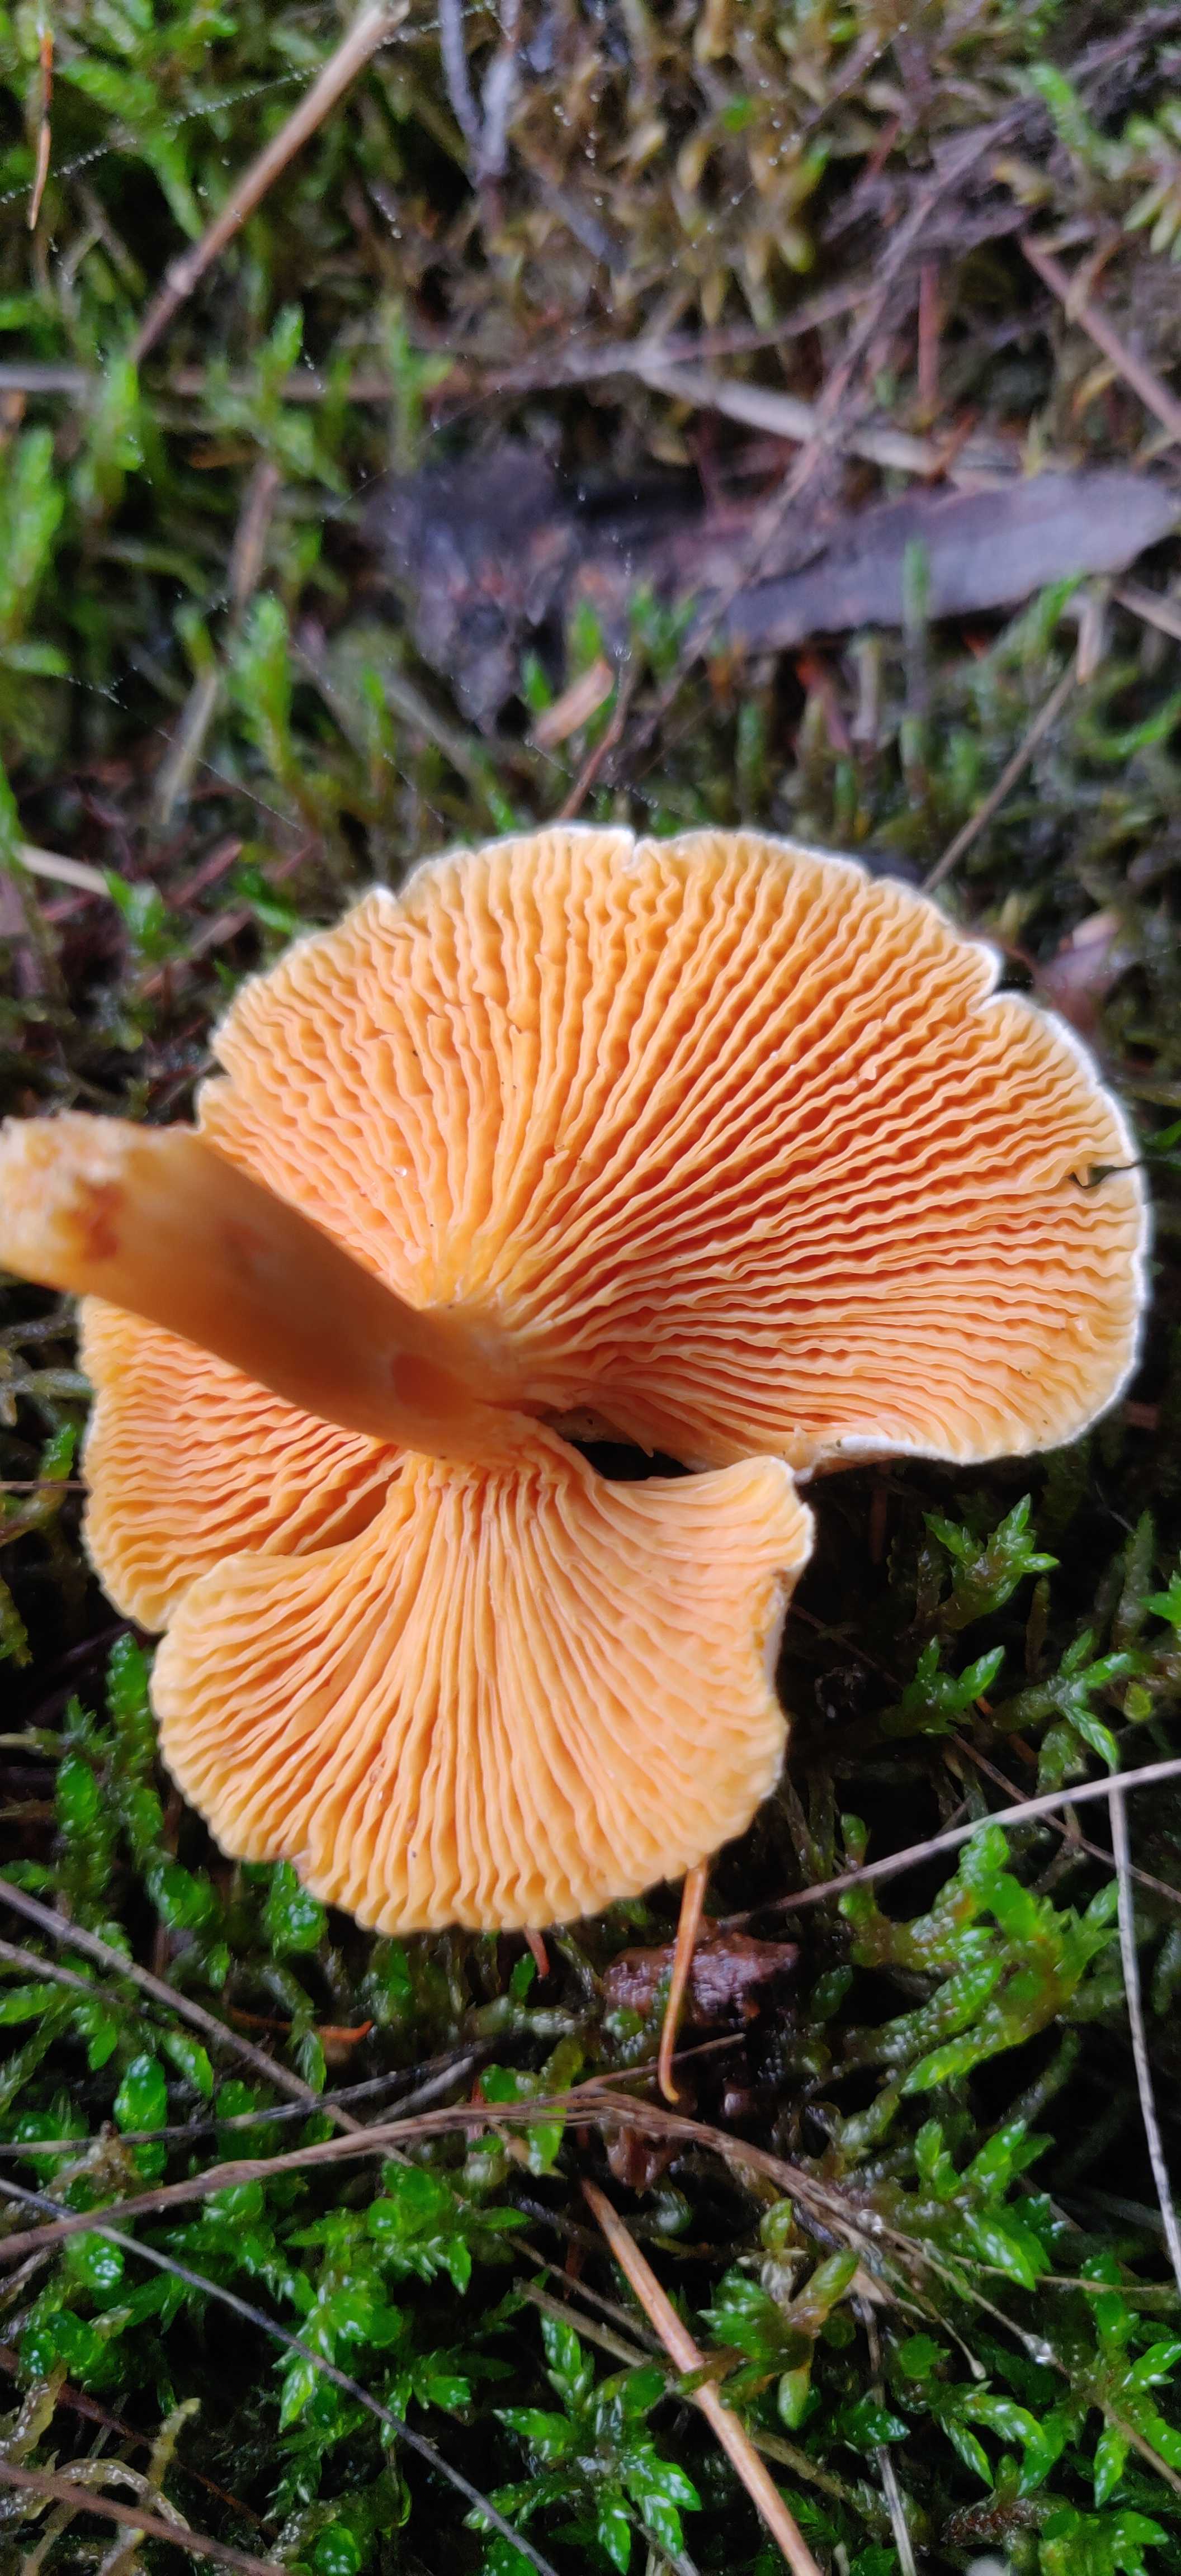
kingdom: Fungi
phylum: Basidiomycota
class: Agaricomycetes
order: Boletales
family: Hygrophoropsidaceae
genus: Hygrophoropsis
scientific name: Hygrophoropsis aurantiaca
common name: almindelig orangekantarel
